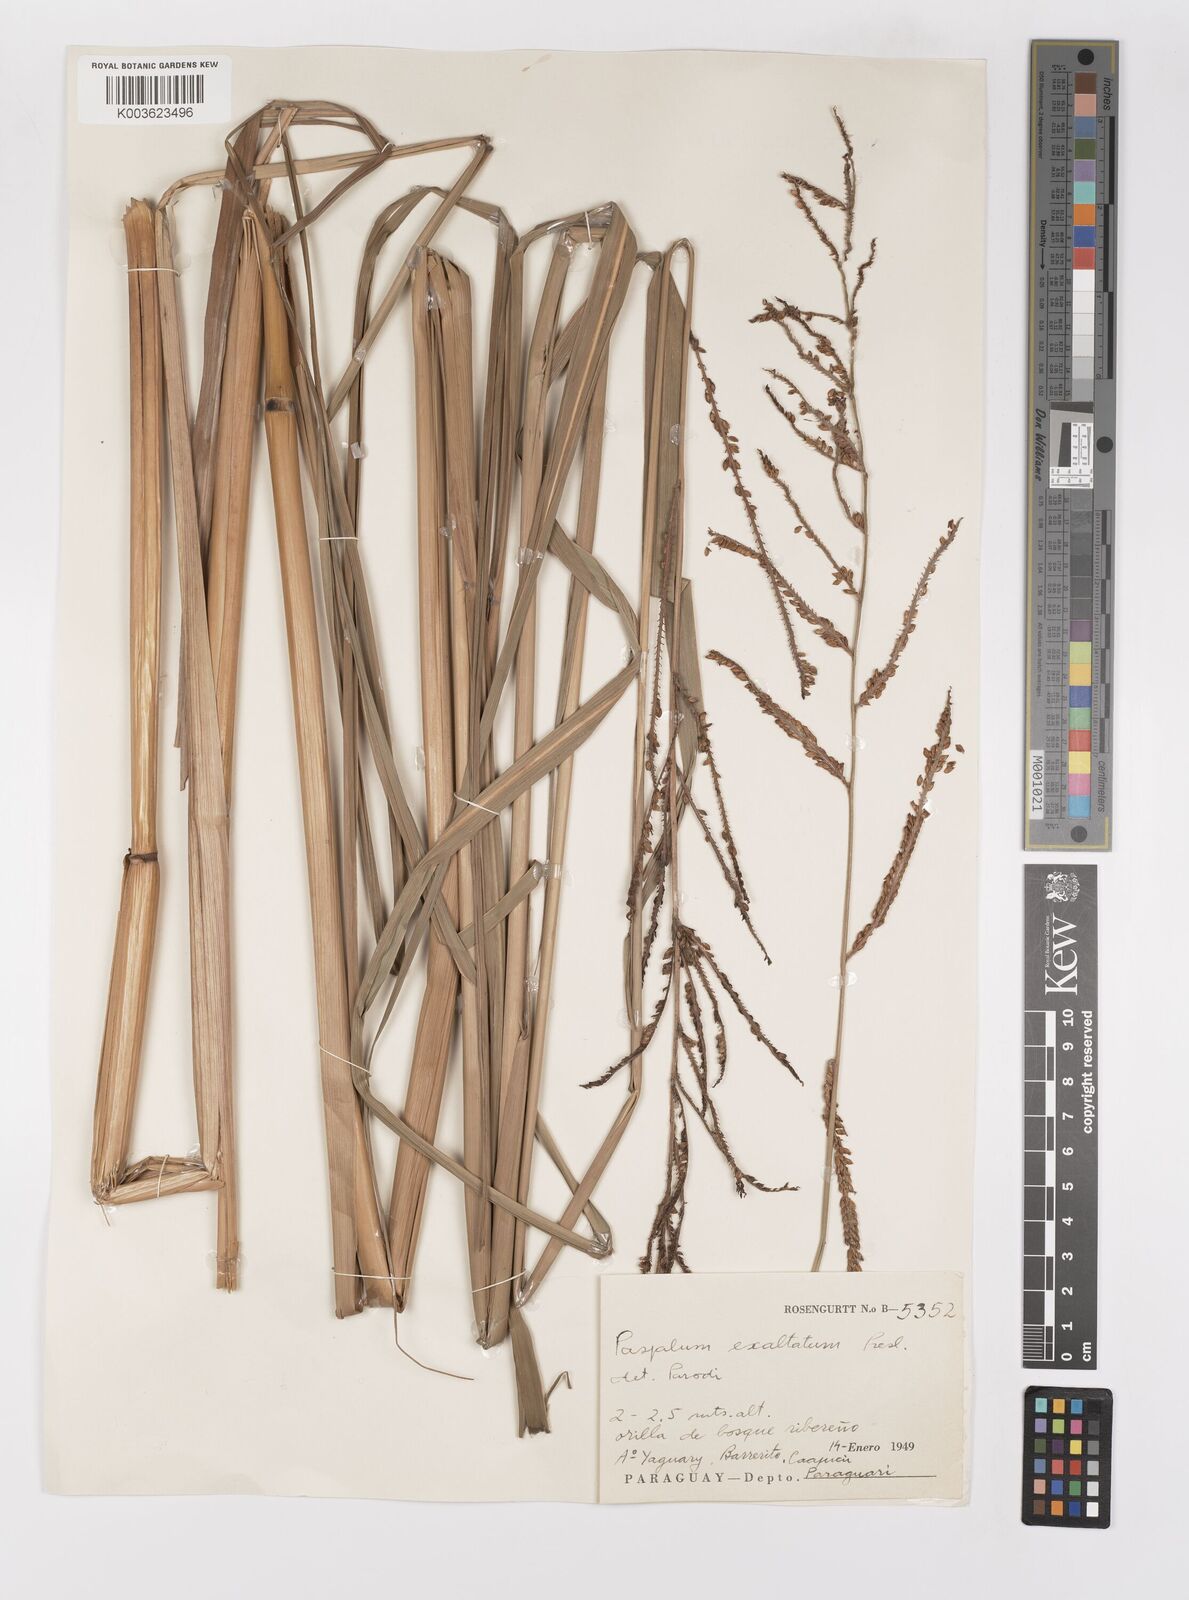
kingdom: Plantae
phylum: Tracheophyta
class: Liliopsida
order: Poales
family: Poaceae
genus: Paspalum
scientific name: Paspalum exaltatum
